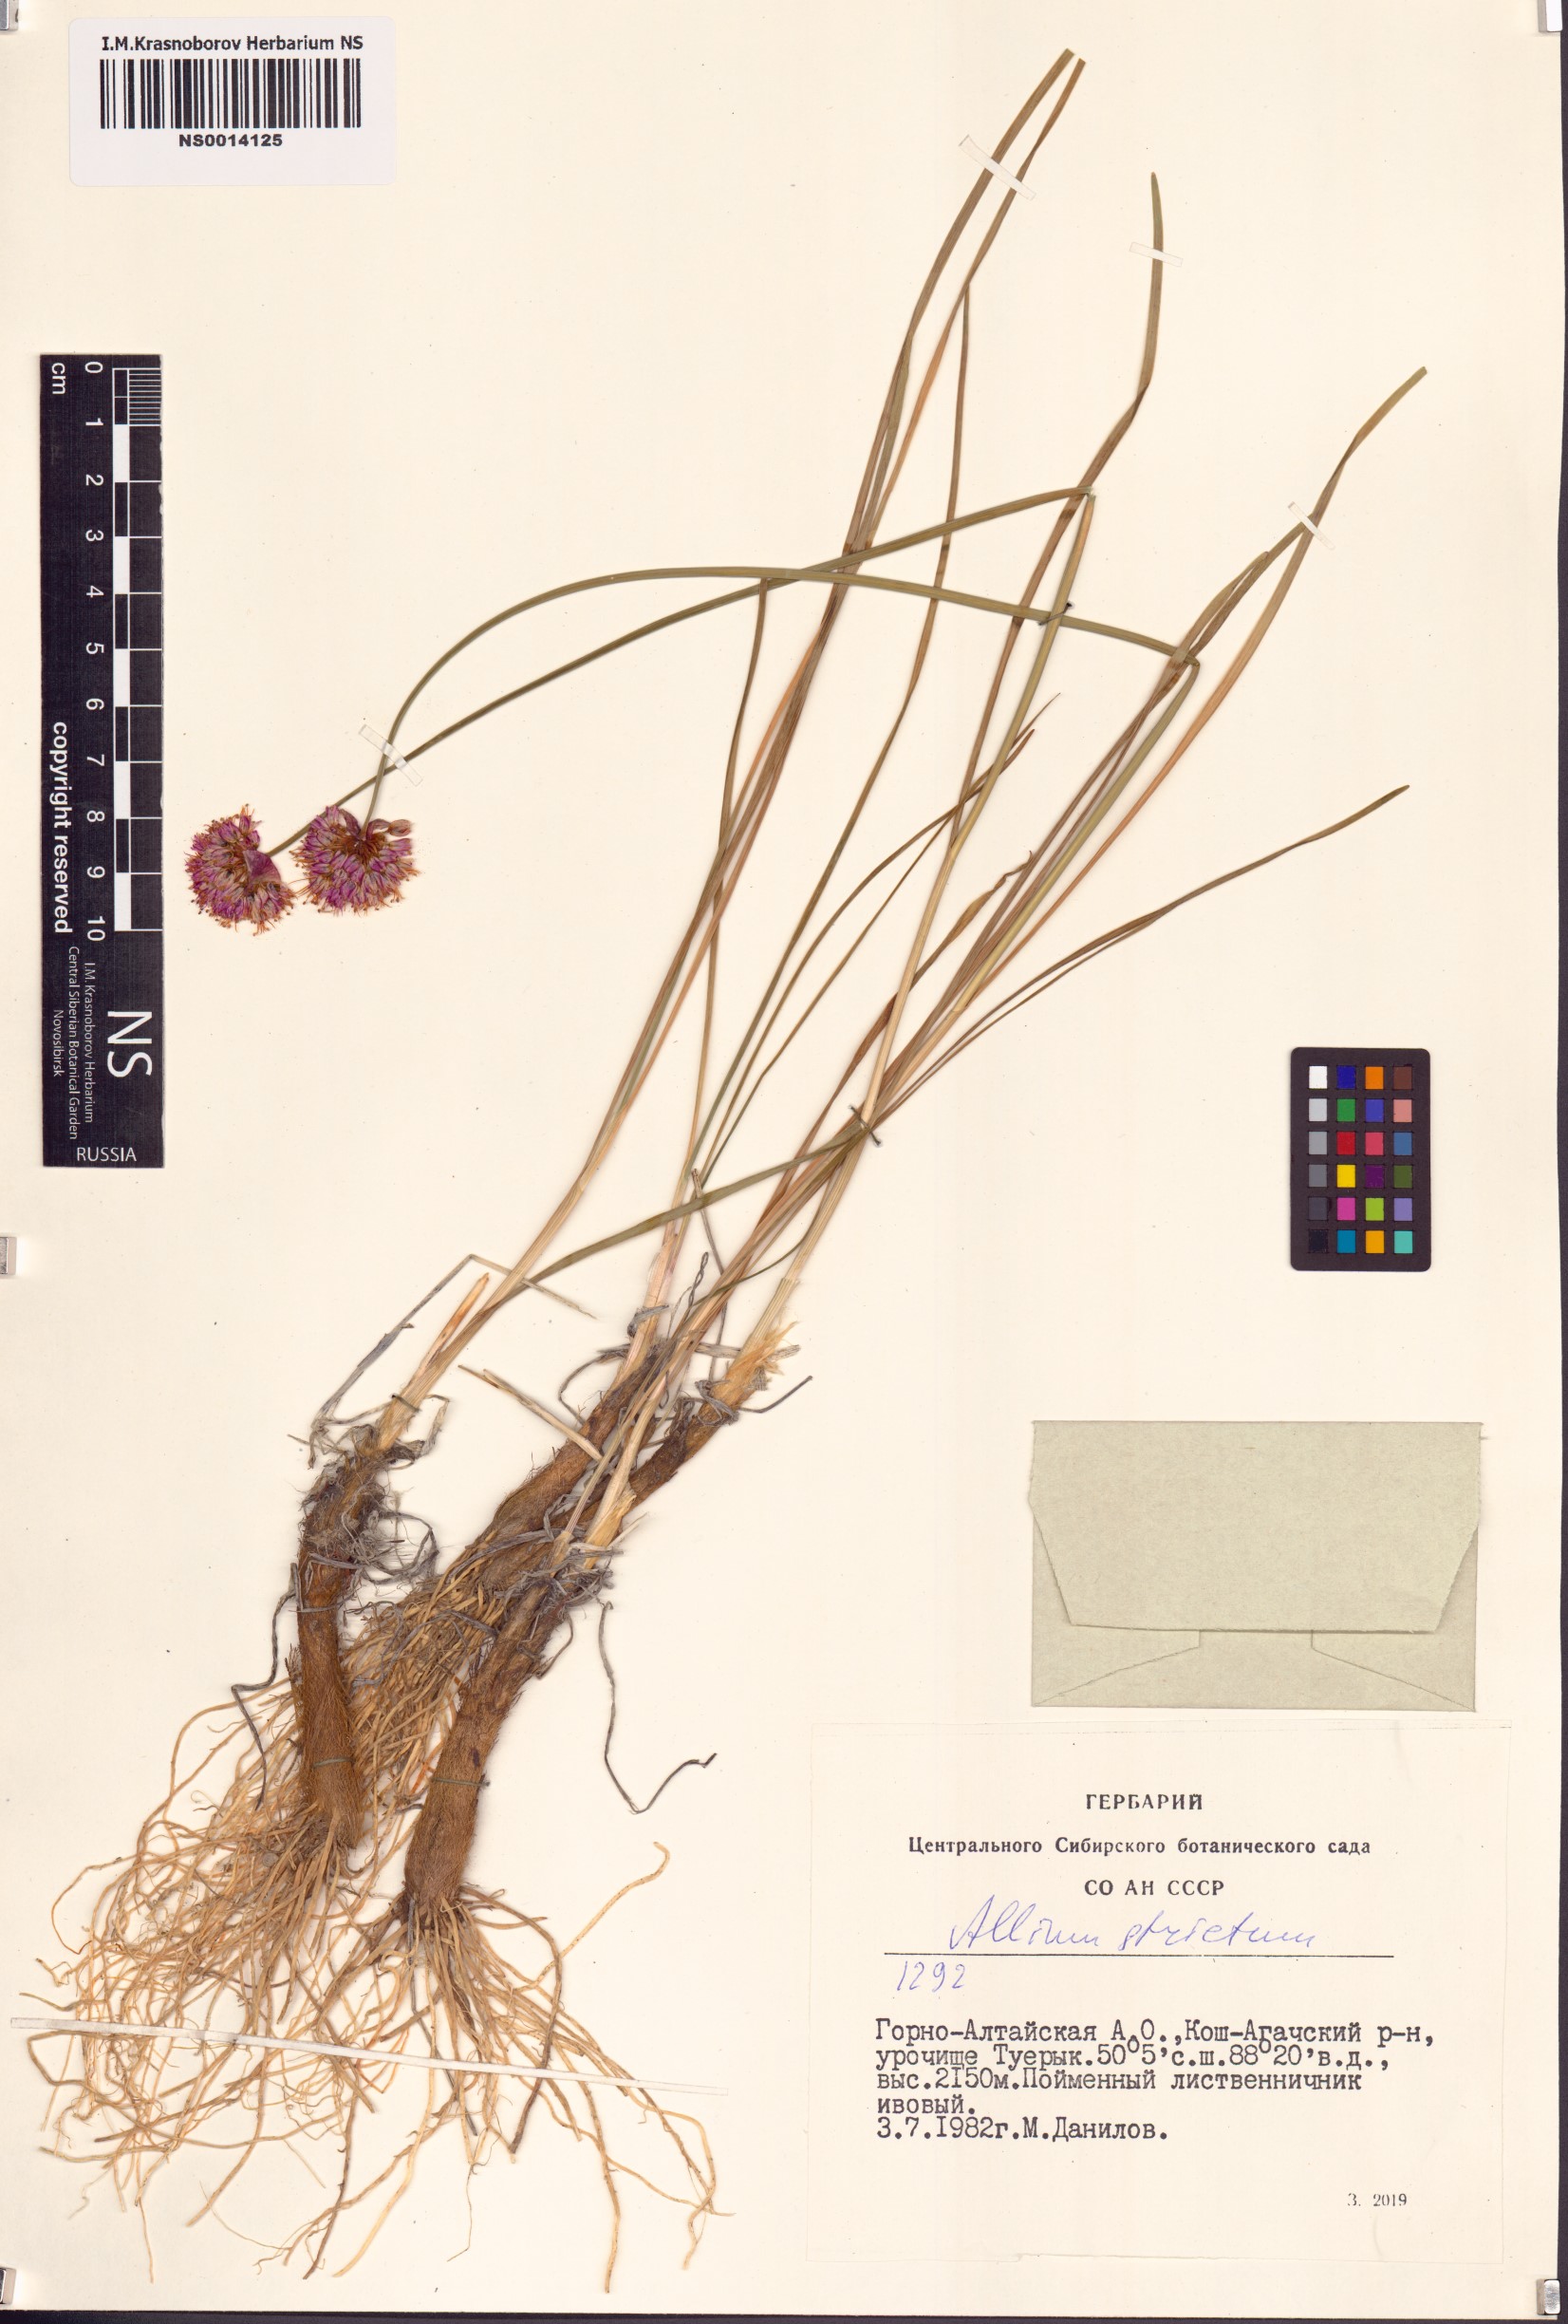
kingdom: Plantae
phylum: Tracheophyta
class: Liliopsida
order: Asparagales
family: Amaryllidaceae
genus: Allium
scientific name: Allium strictum
